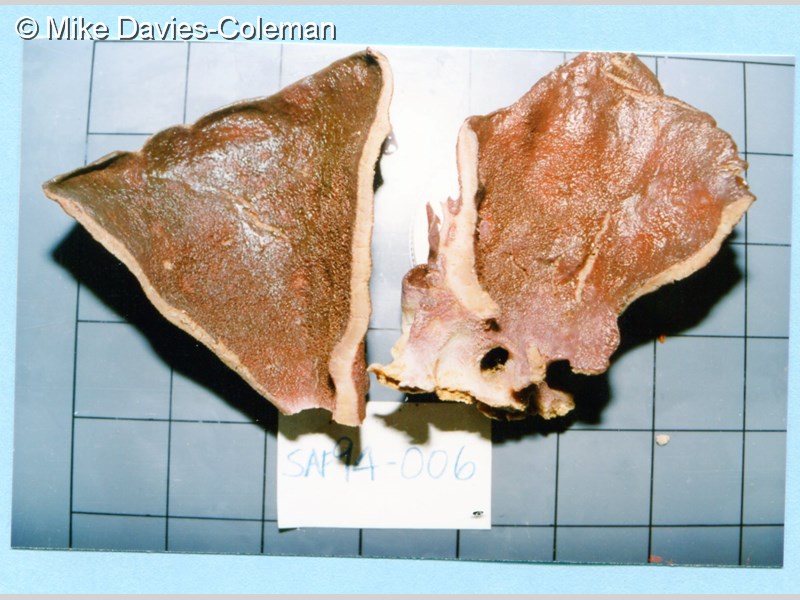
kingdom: Animalia
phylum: Porifera
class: Demospongiae
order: Tethyida
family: Hemiasterellidae
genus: Hemiasterella
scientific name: Hemiasterella vasiformis
